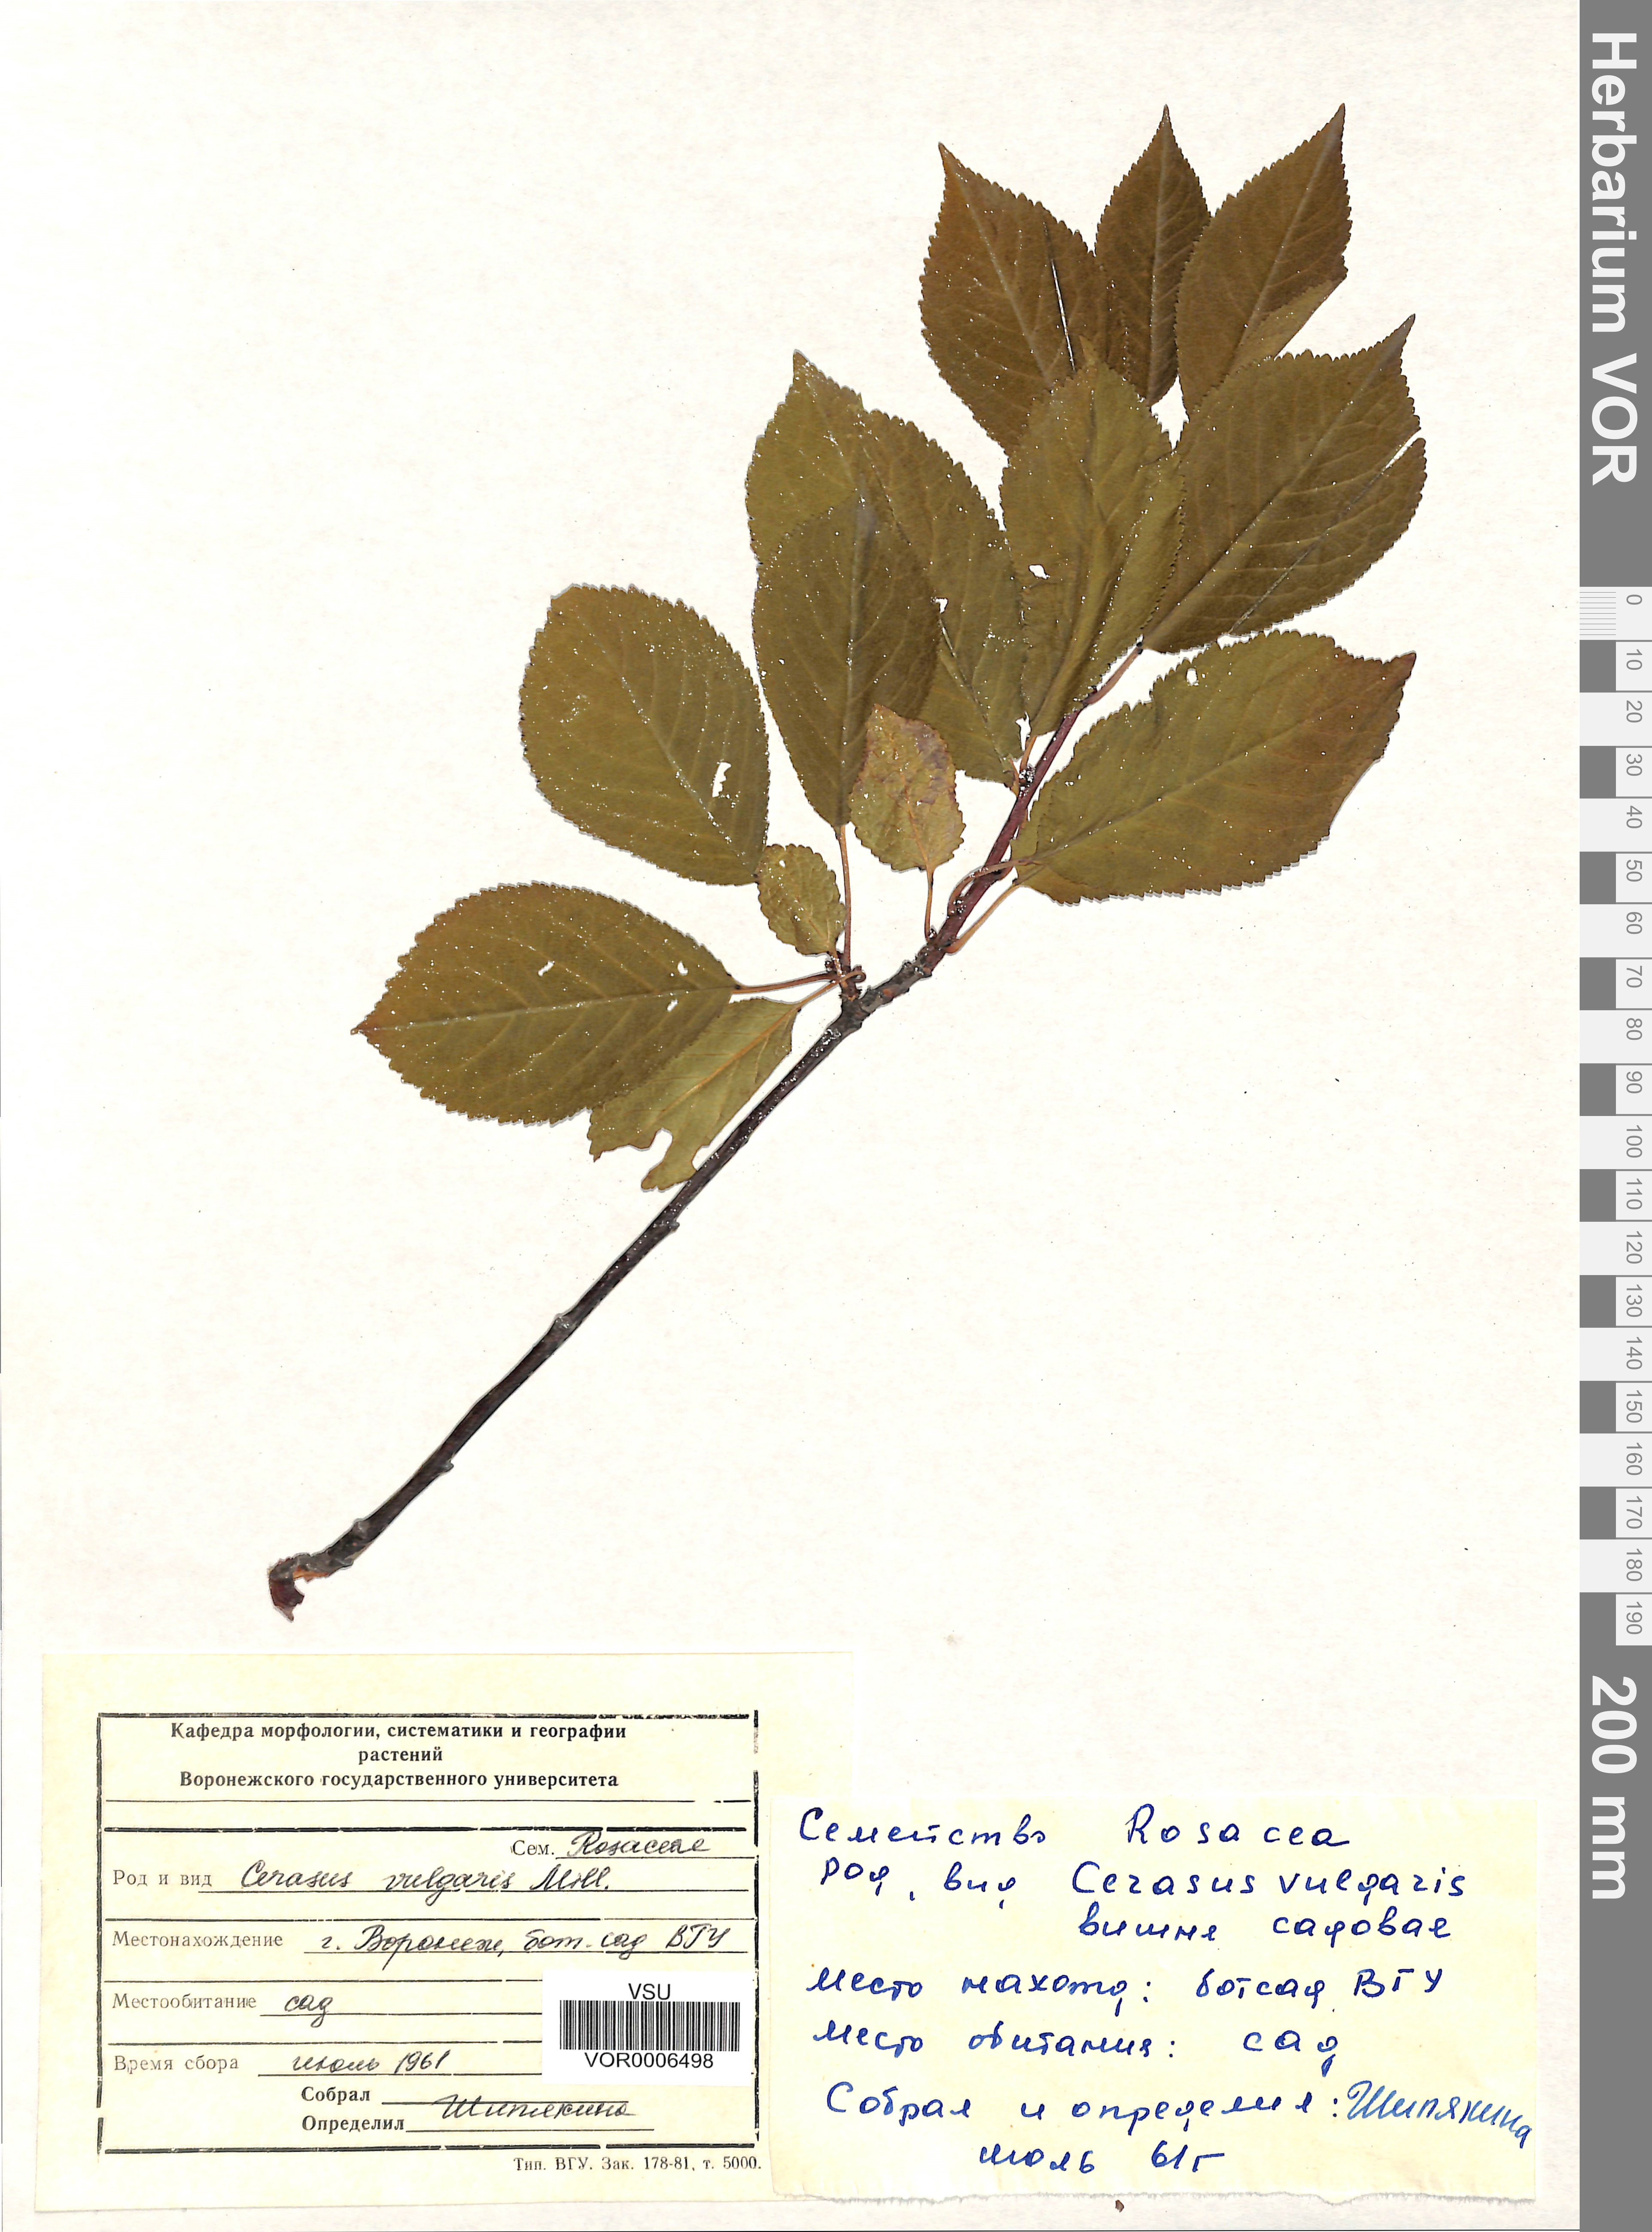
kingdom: Plantae
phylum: Tracheophyta
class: Magnoliopsida
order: Rosales
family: Rosaceae
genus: Prunus
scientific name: Prunus cerasus
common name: Morello cherry
